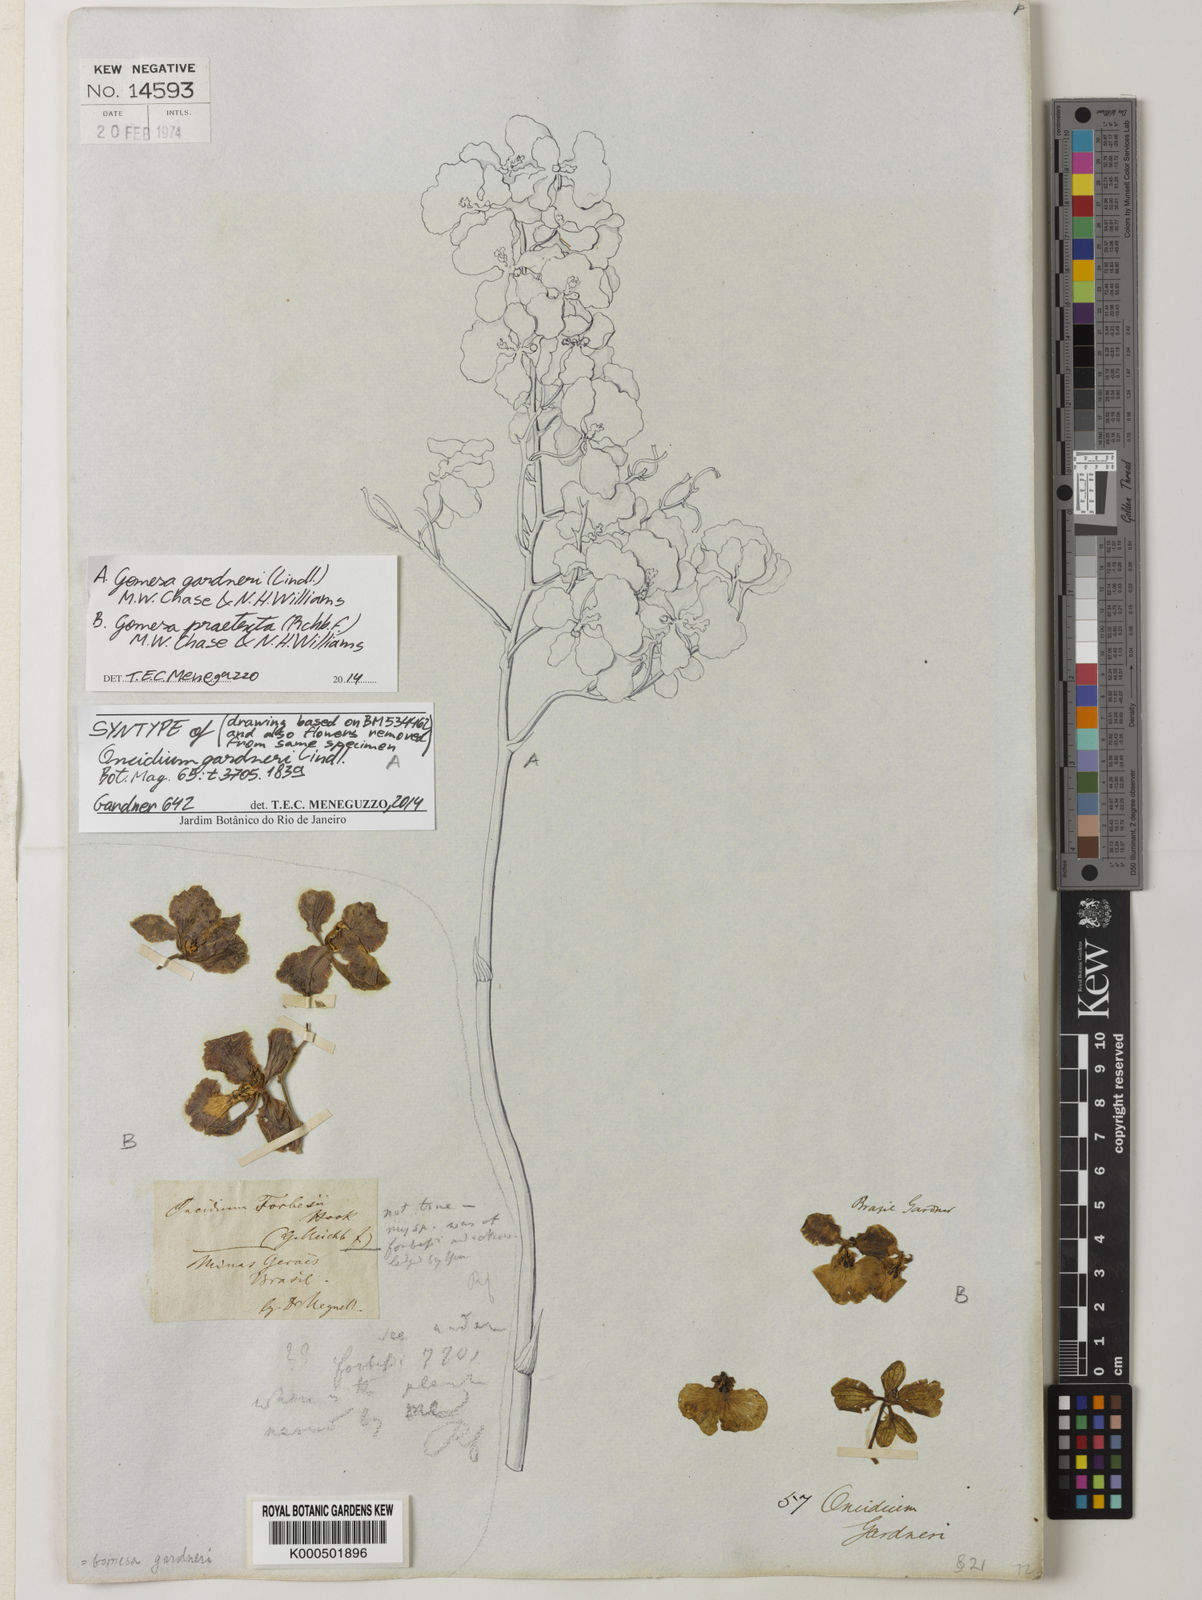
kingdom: Plantae
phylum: Tracheophyta
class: Liliopsida
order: Asparagales
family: Orchidaceae
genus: Gomesa
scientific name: Gomesa gardneri
